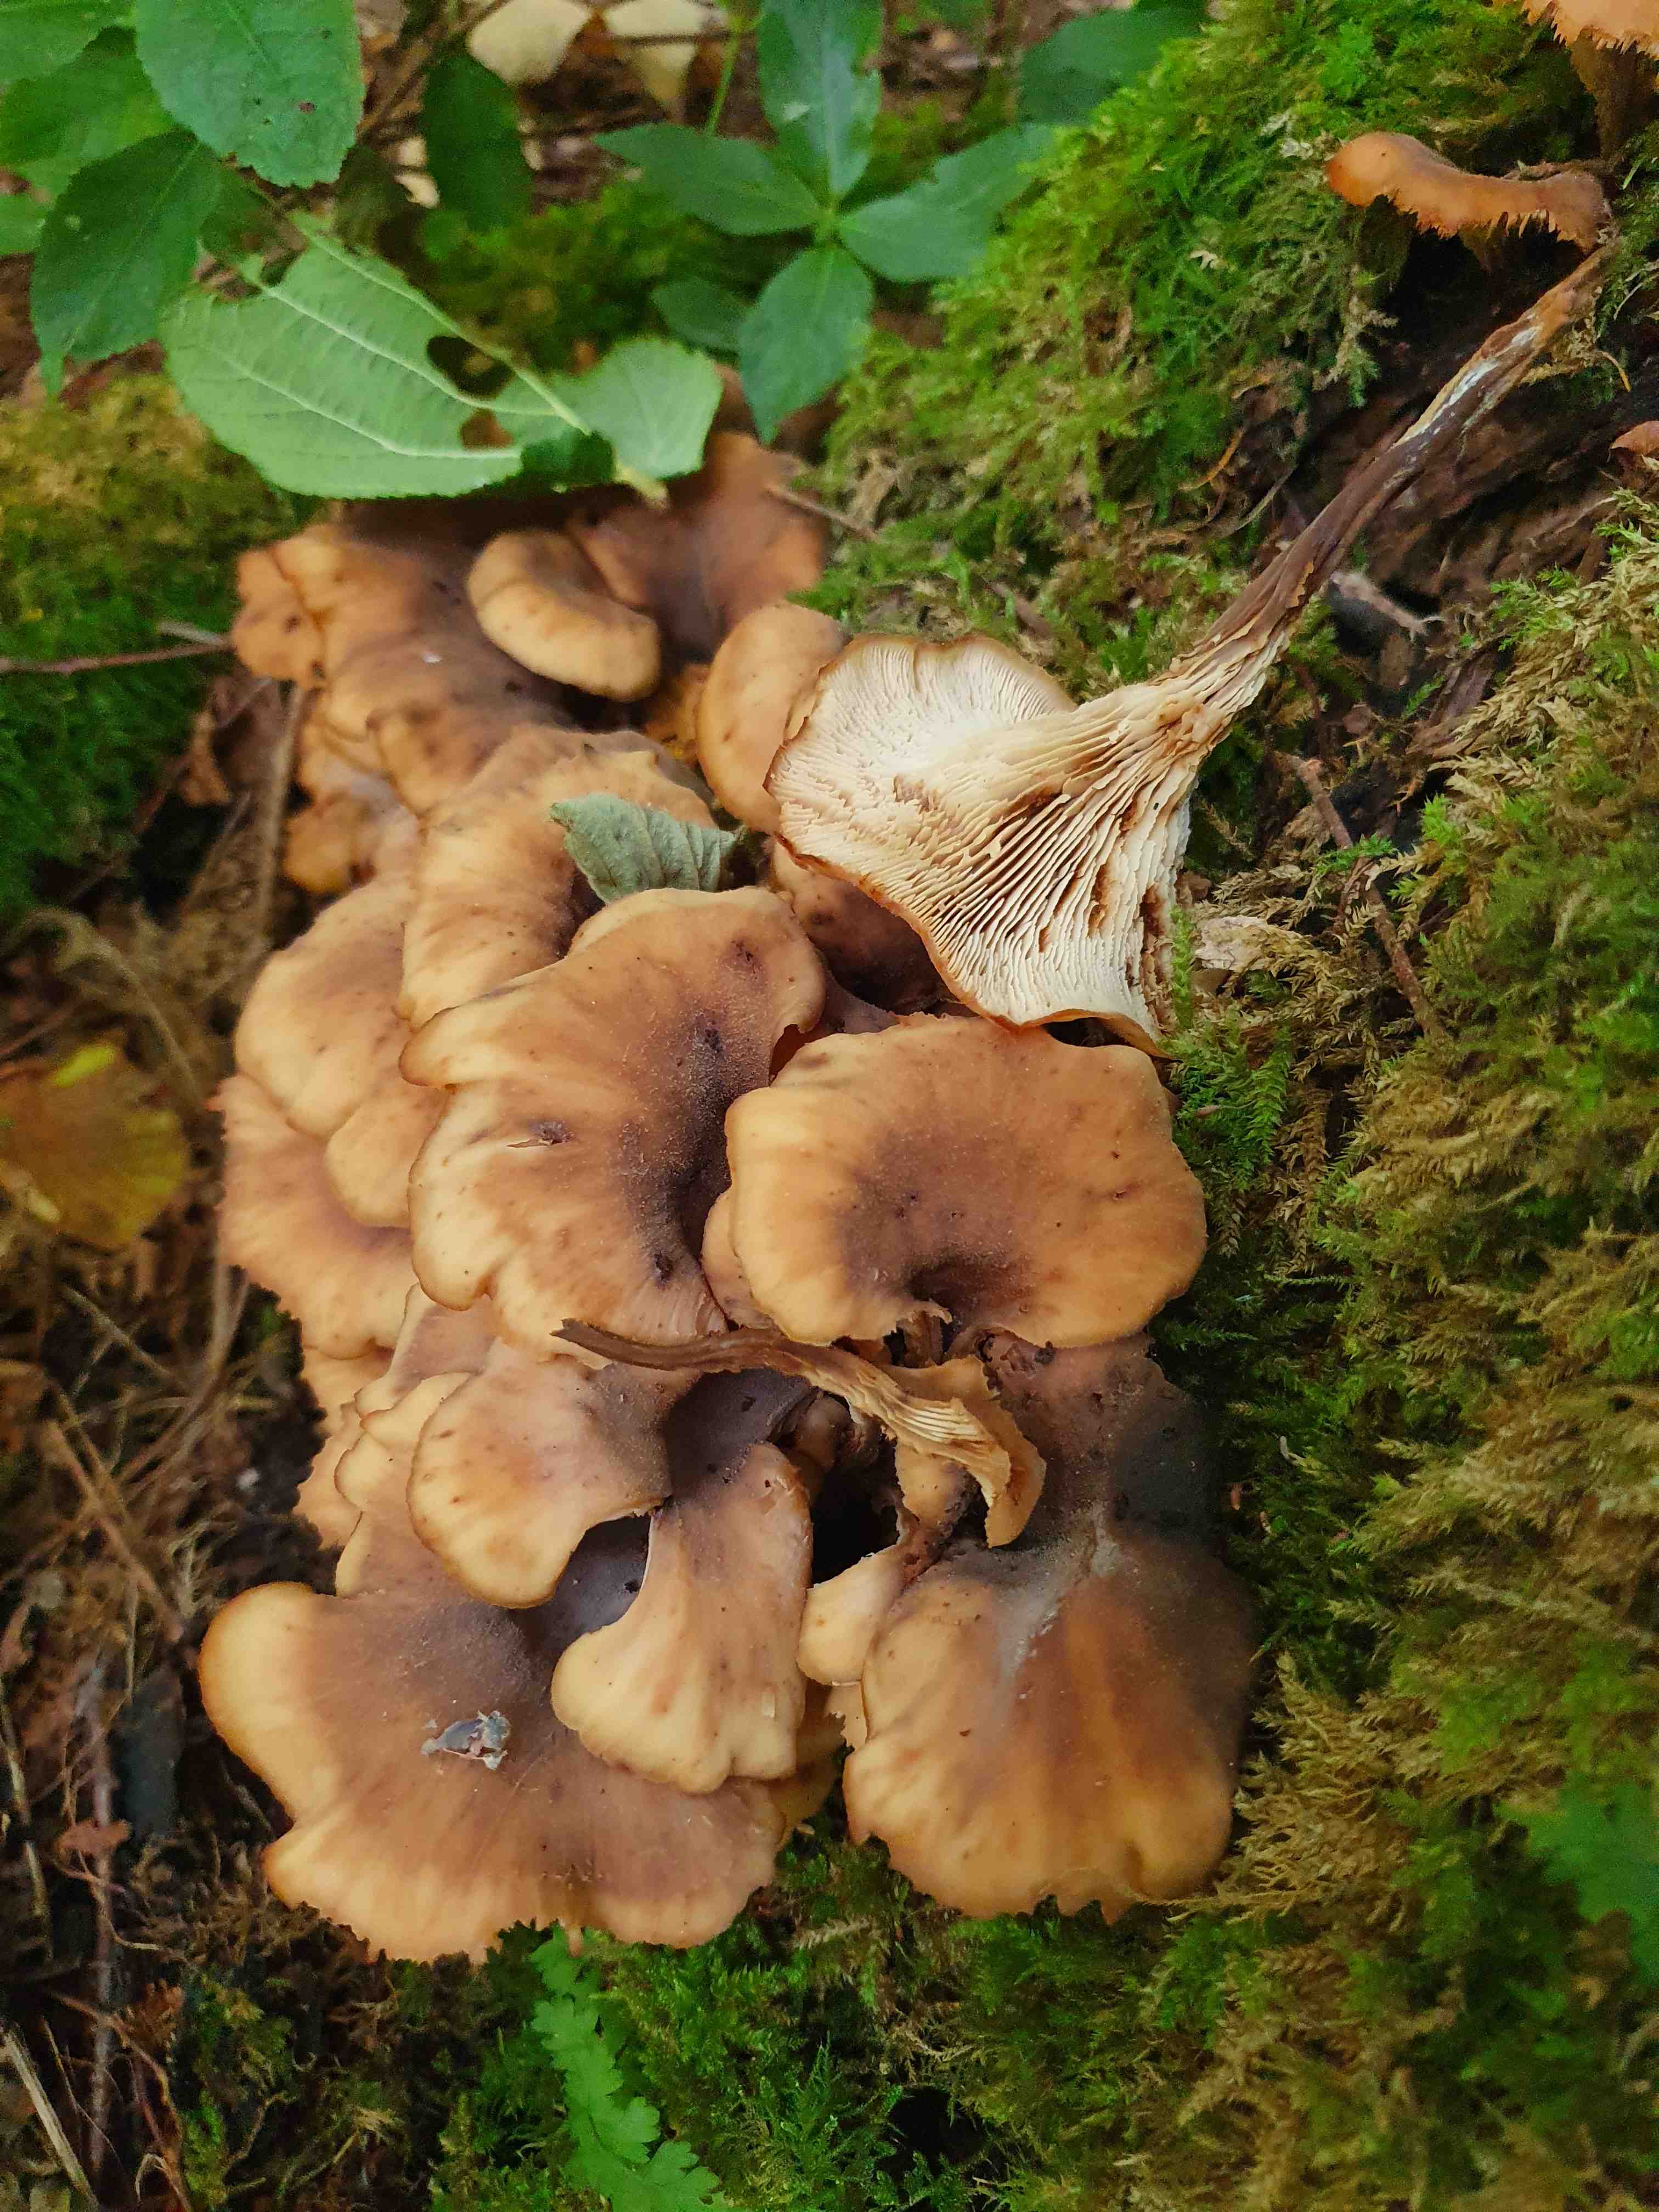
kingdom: Fungi
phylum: Basidiomycota
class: Agaricomycetes
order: Russulales
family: Auriscalpiaceae
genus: Lentinellus
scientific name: Lentinellus cochleatus
